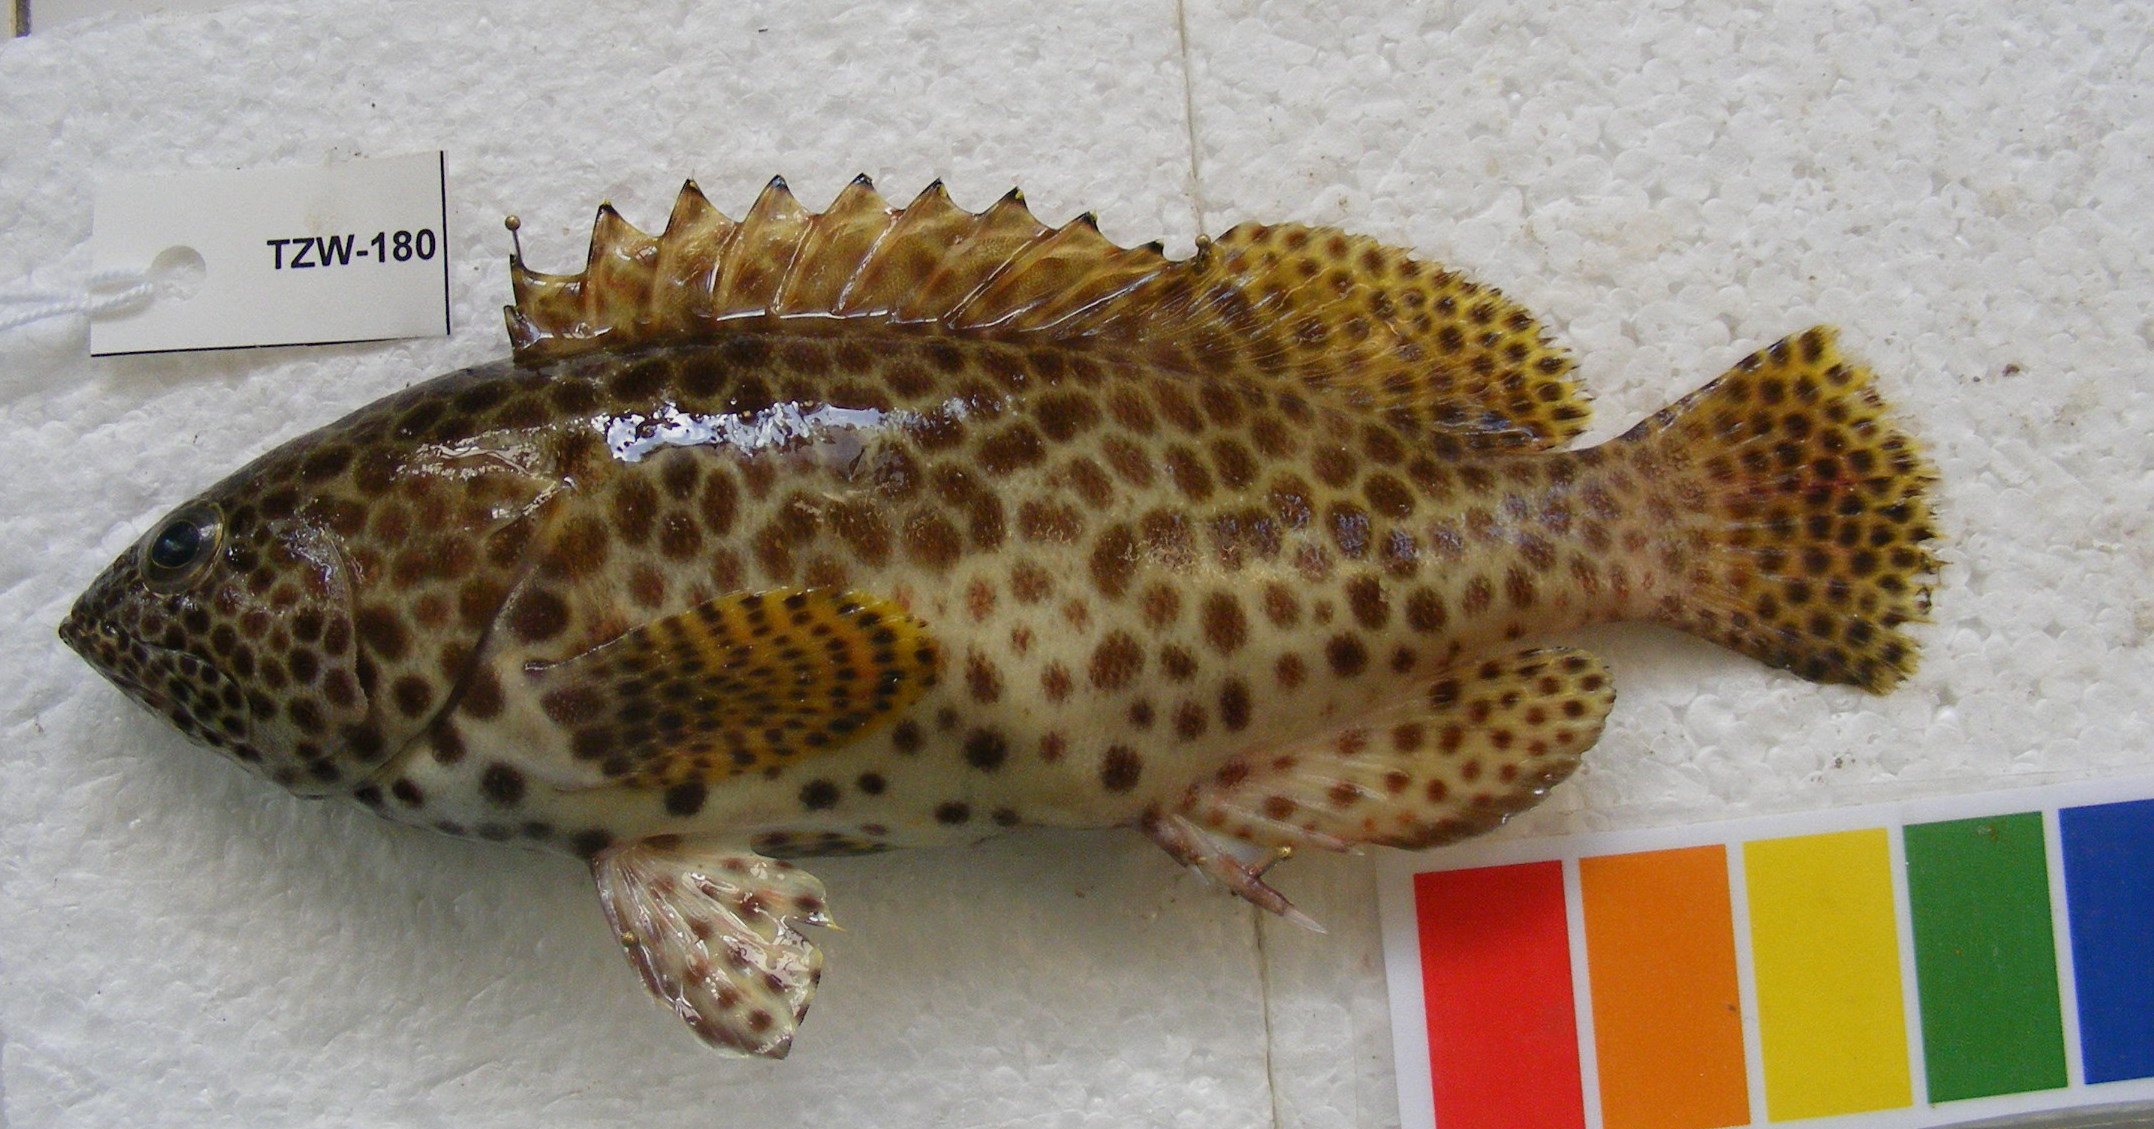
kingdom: Animalia
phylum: Chordata
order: Perciformes
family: Serranidae
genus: Epinephelus
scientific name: Epinephelus merra
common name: Honeycomb grouper
